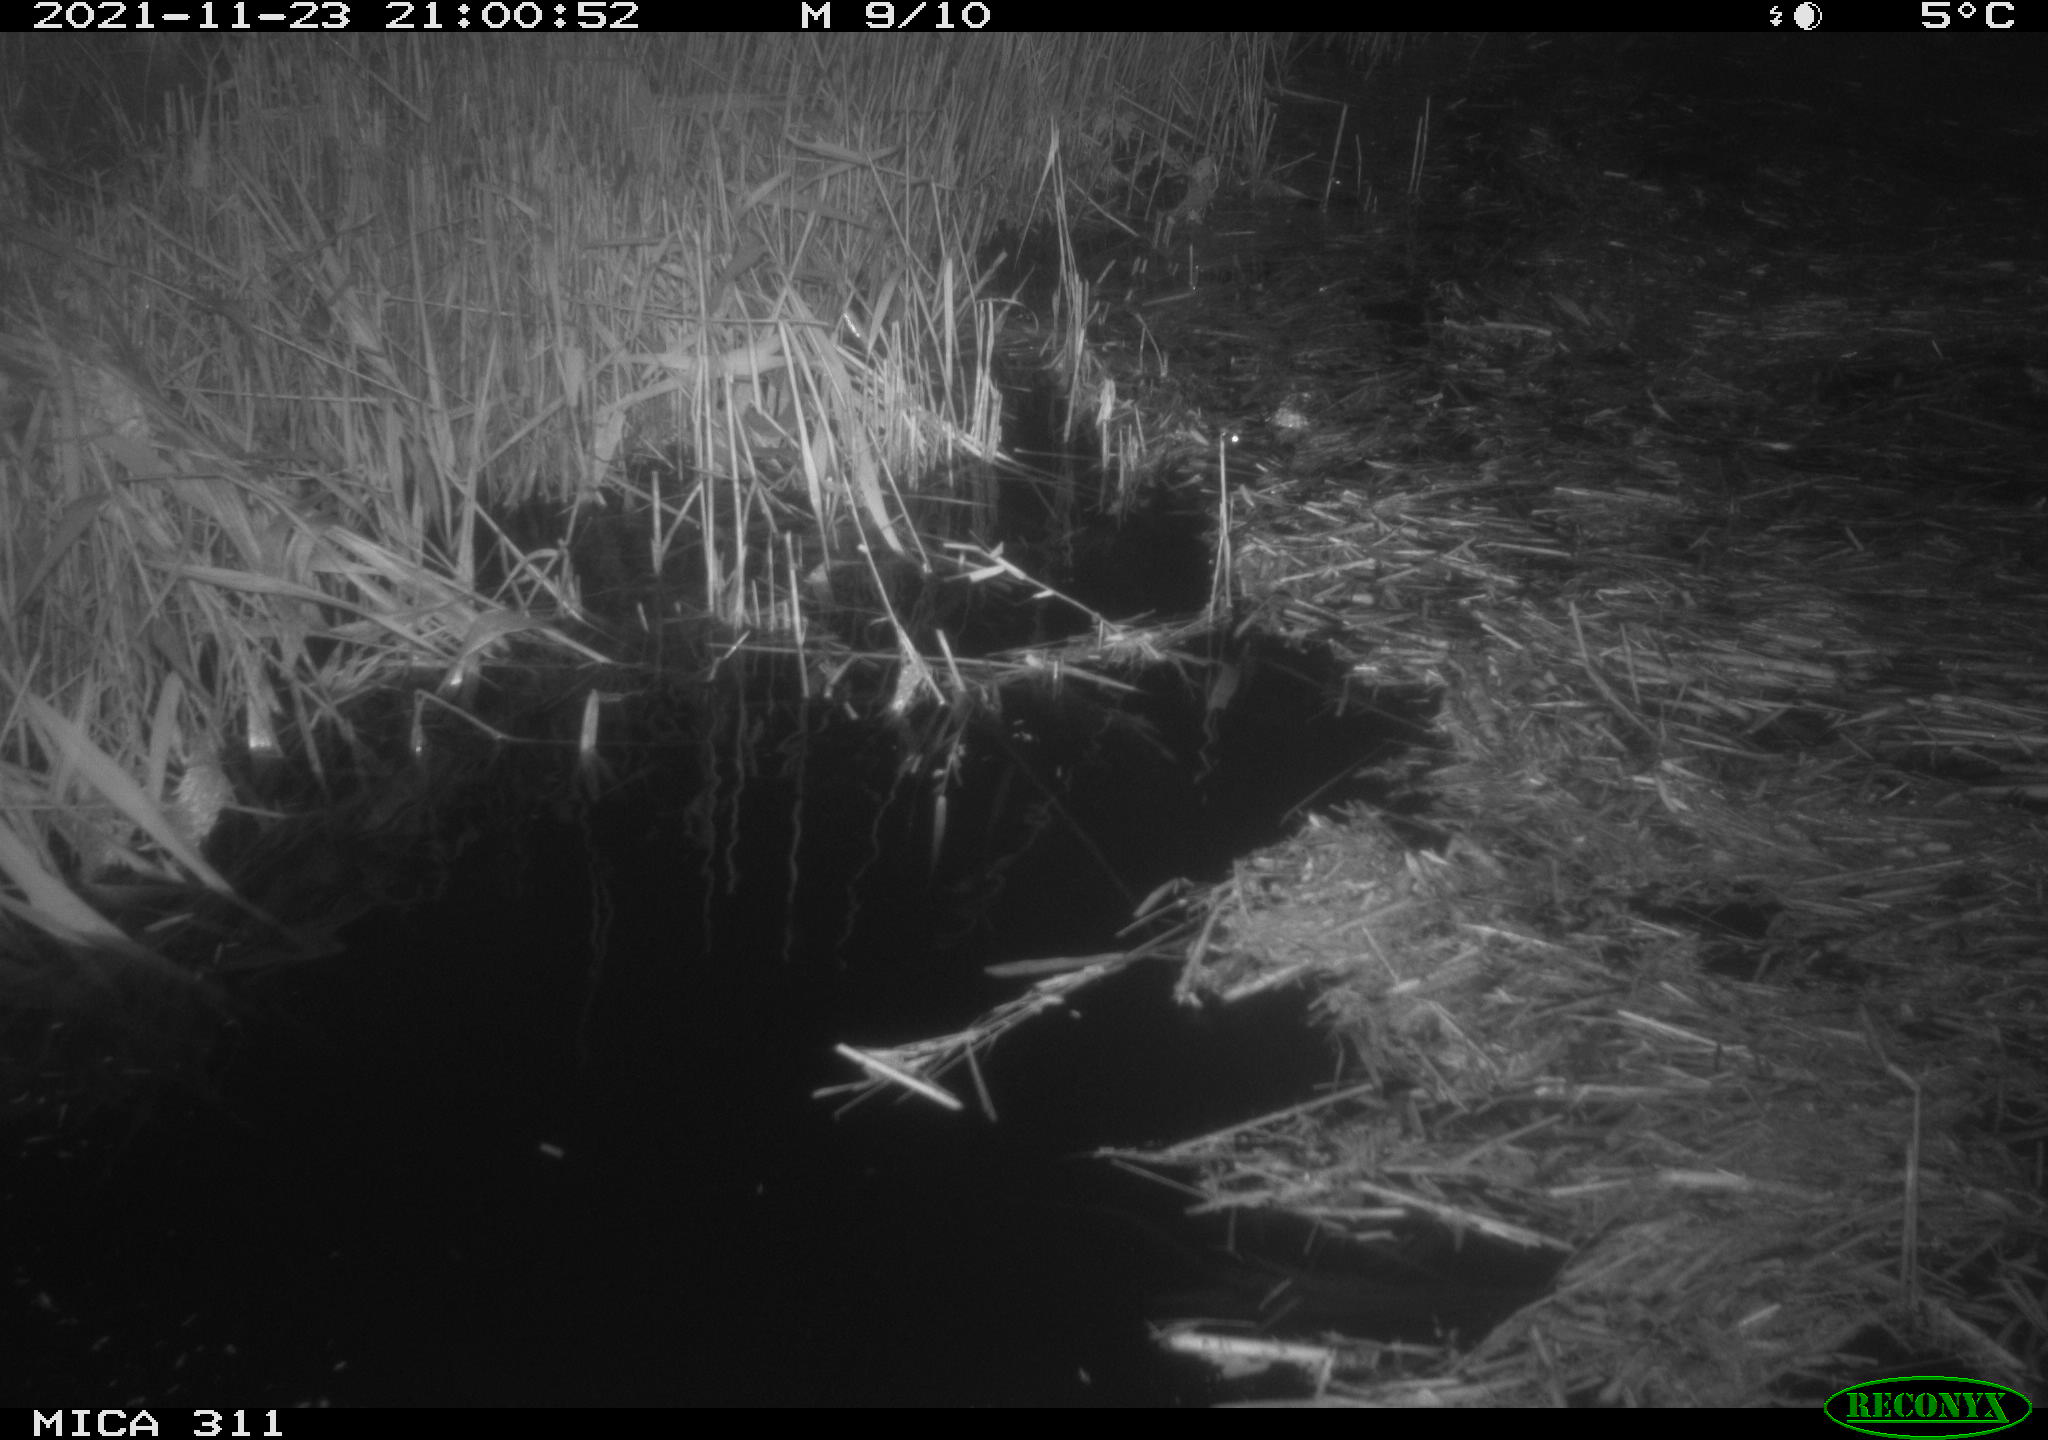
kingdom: Animalia
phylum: Chordata
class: Mammalia
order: Rodentia
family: Muridae
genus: Rattus
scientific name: Rattus norvegicus
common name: Brown rat
